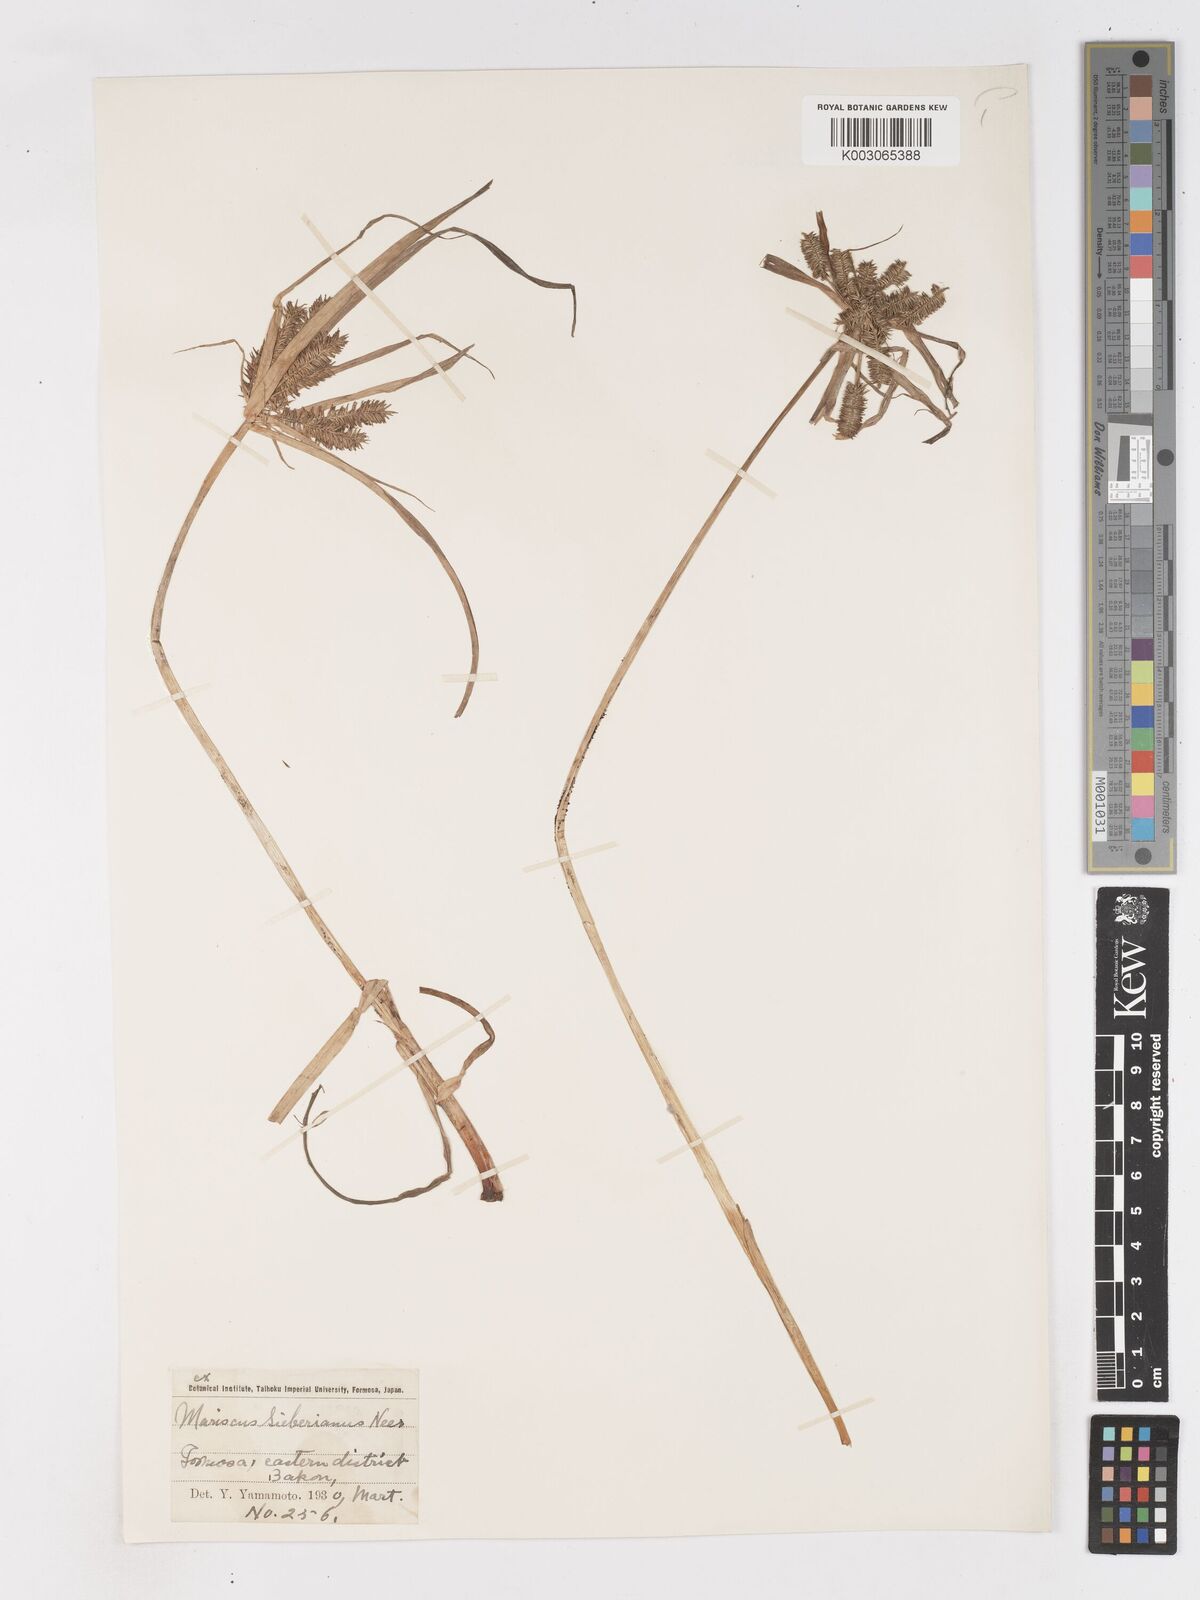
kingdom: Plantae
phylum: Tracheophyta
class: Liliopsida
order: Poales
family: Cyperaceae
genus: Cyperus
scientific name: Cyperus cyperoides
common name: Pacific island flat sedge
